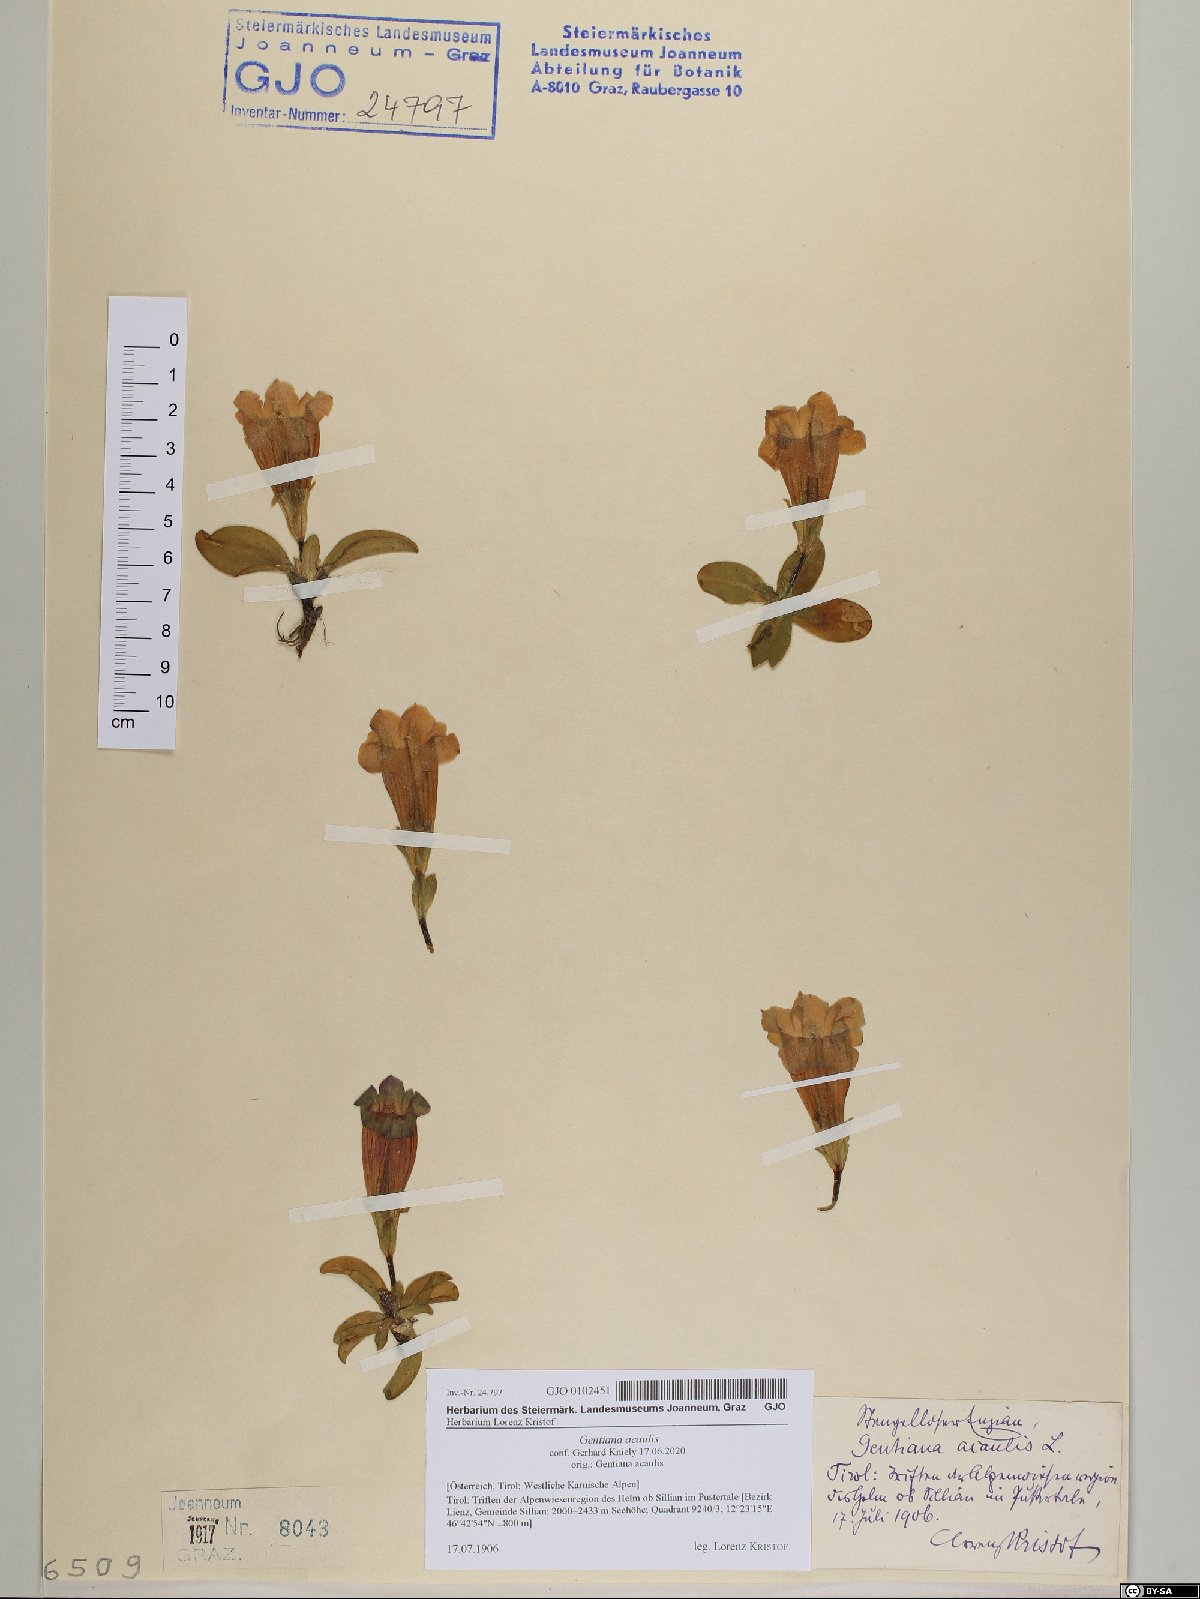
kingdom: Plantae
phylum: Tracheophyta
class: Magnoliopsida
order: Gentianales
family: Gentianaceae
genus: Gentiana
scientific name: Gentiana acaulis
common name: Trumpet gentian
